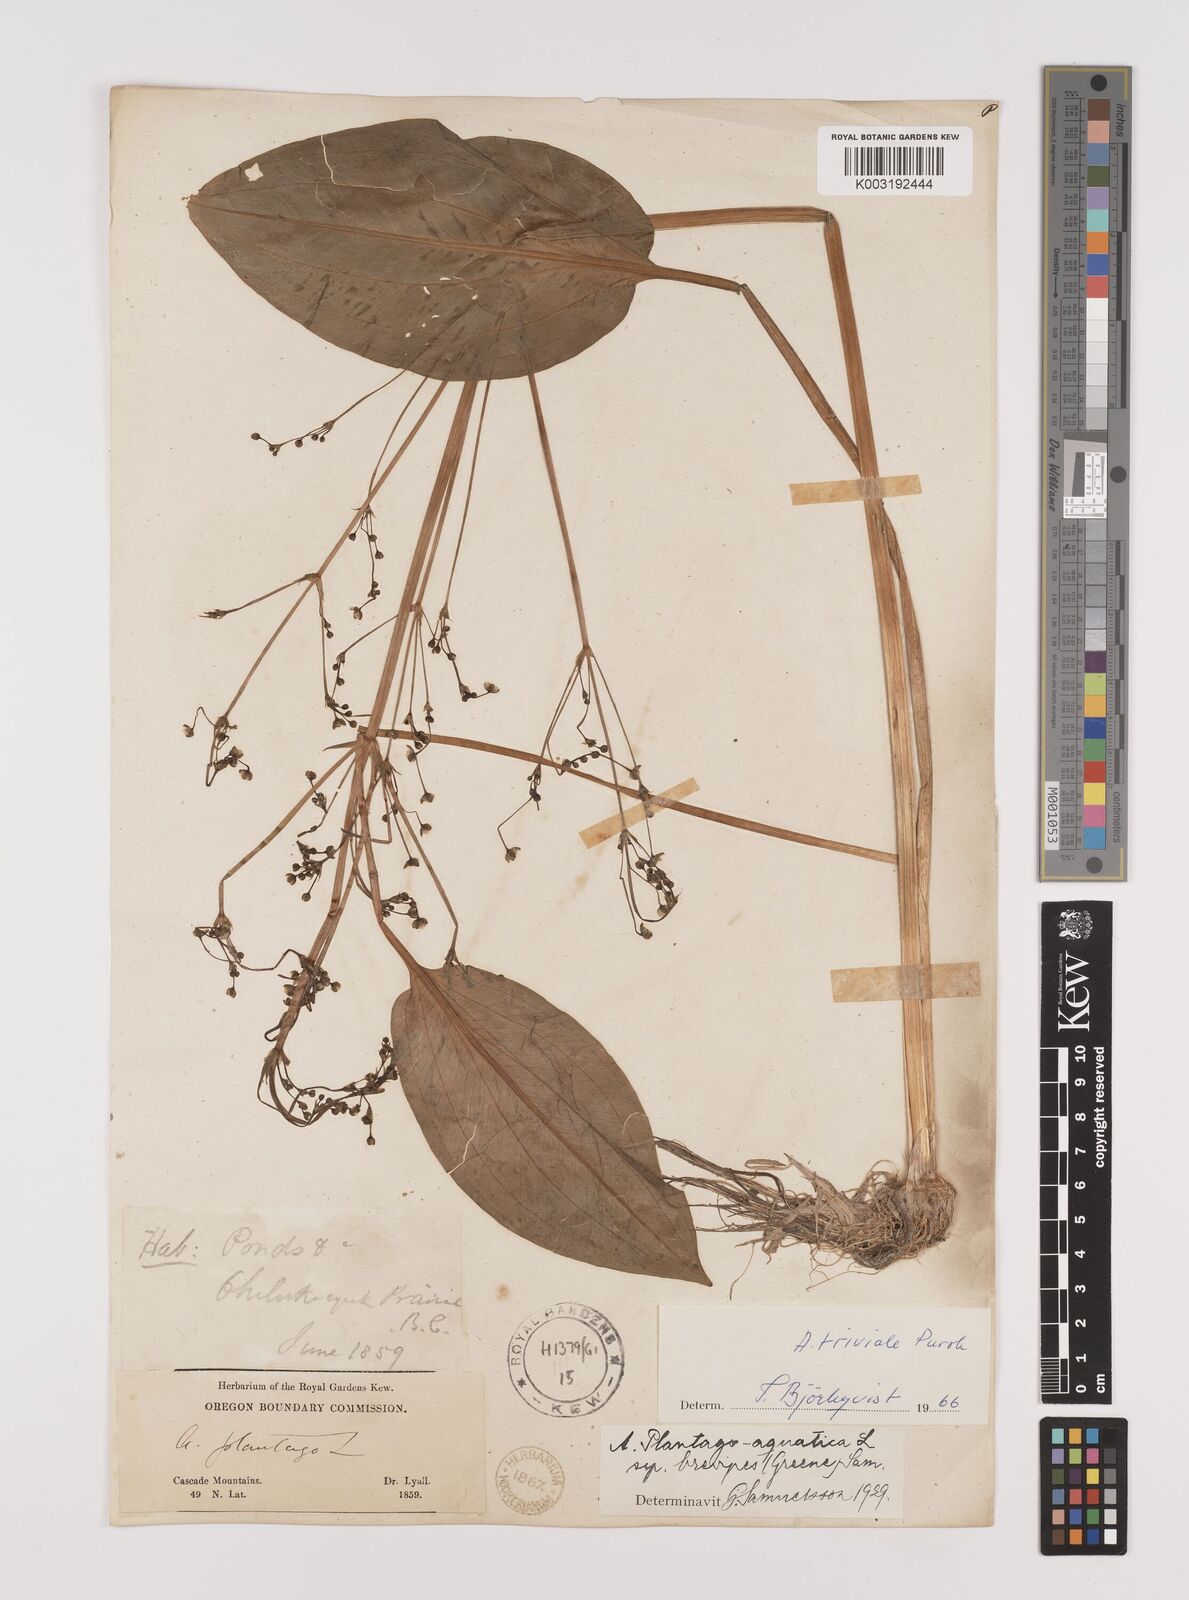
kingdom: Plantae
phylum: Tracheophyta
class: Liliopsida
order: Alismatales
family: Alismataceae
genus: Alisma
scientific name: Alisma triviale
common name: Northern water-plantain
